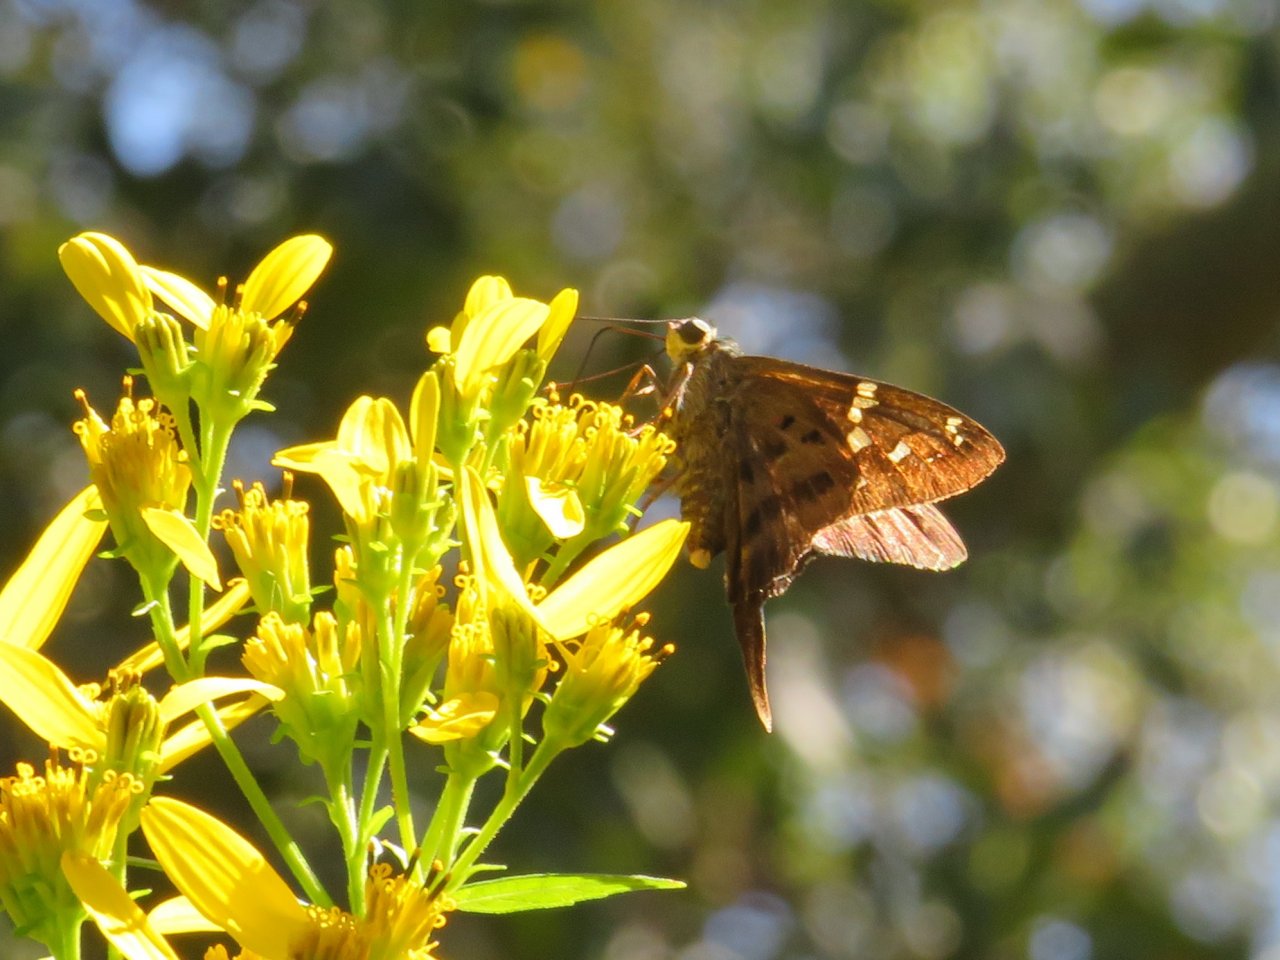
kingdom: Animalia
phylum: Arthropoda
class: Insecta
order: Lepidoptera
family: Hesperiidae
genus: Urbanus
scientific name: Urbanus proteus
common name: Long-tailed Skipper
